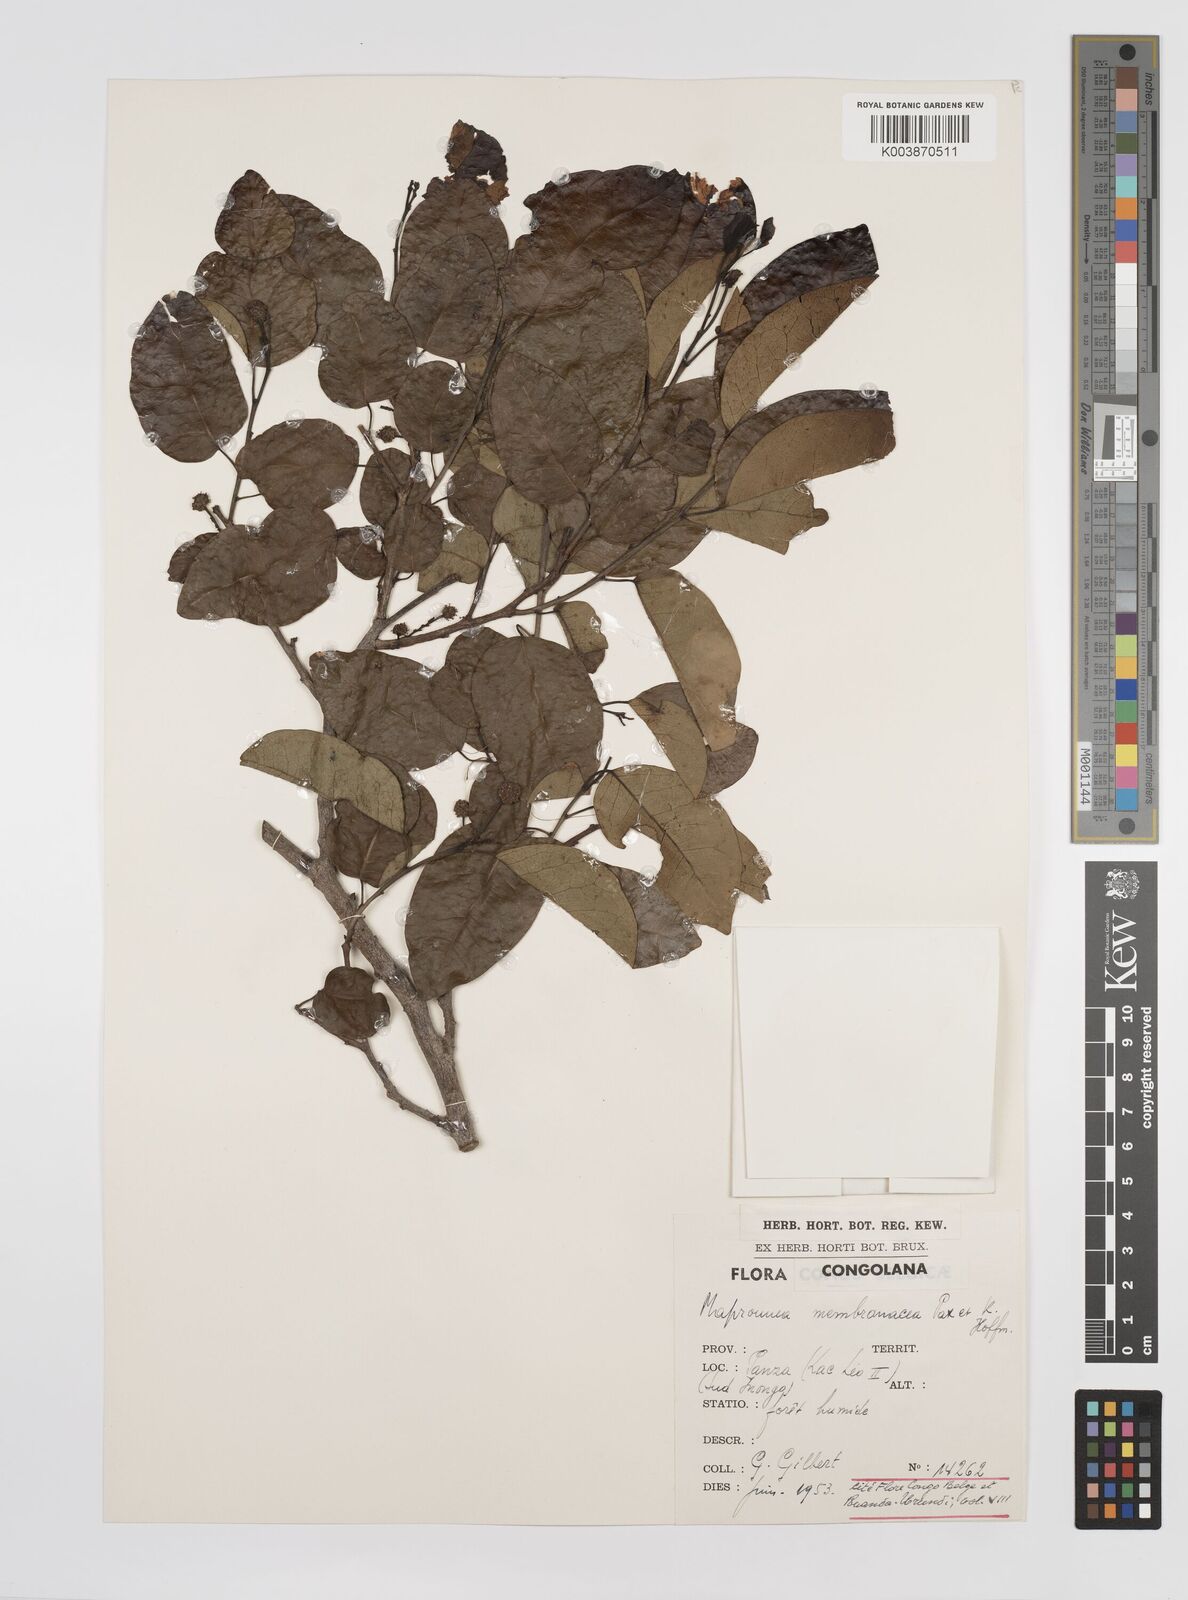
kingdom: Plantae
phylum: Tracheophyta
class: Magnoliopsida
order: Malpighiales
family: Euphorbiaceae
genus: Maprounea
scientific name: Maprounea membranacea
